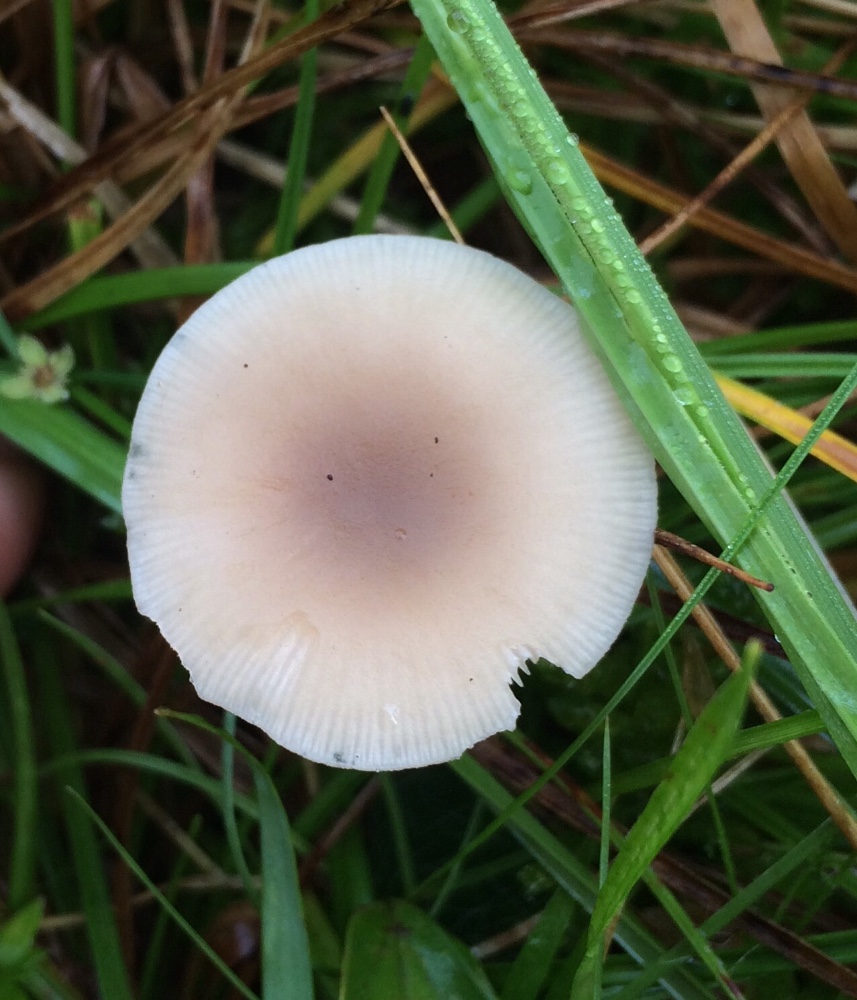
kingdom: Fungi
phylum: Basidiomycota
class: Agaricomycetes
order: Agaricales
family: Tricholomataceae
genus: Clitocybe
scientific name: Clitocybe
